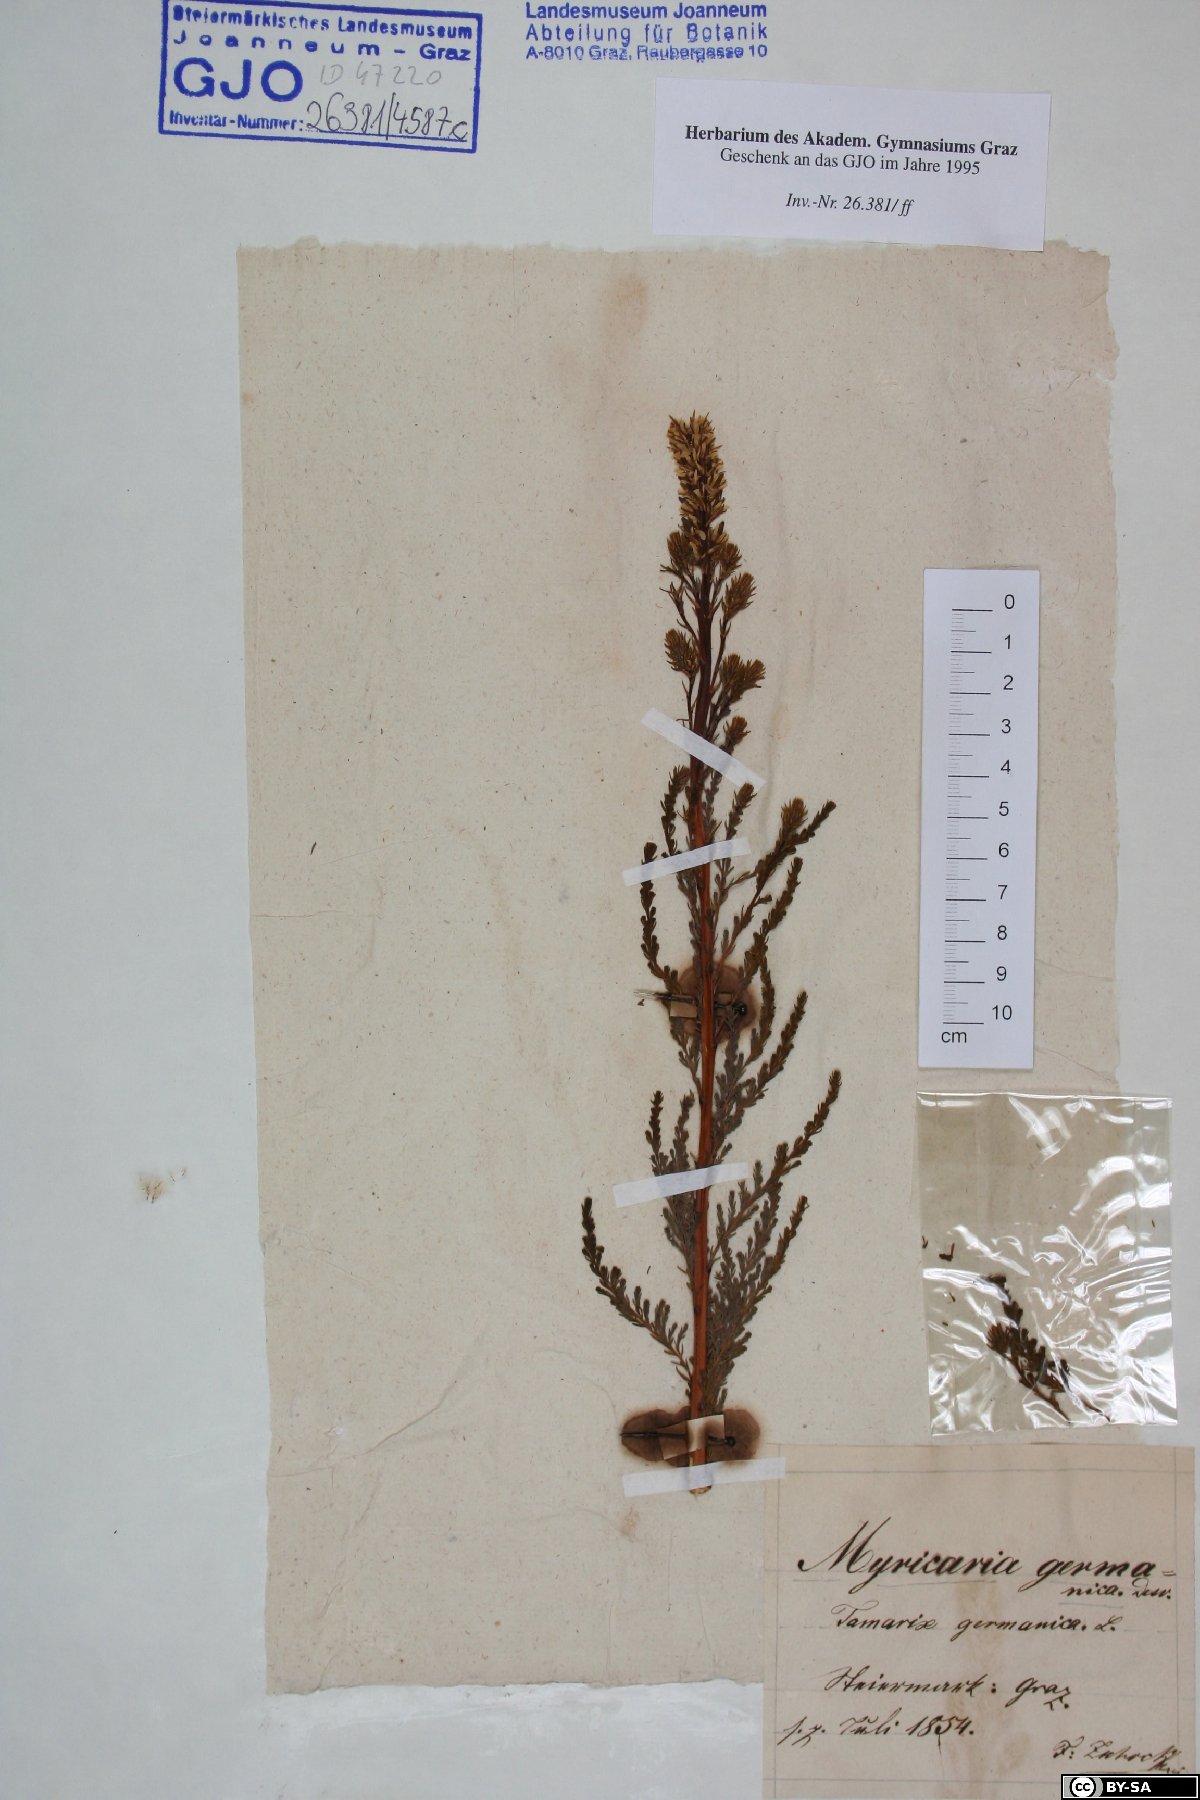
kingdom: Plantae
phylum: Tracheophyta
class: Magnoliopsida
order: Caryophyllales
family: Tamaricaceae
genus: Myricaria
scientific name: Myricaria germanica
